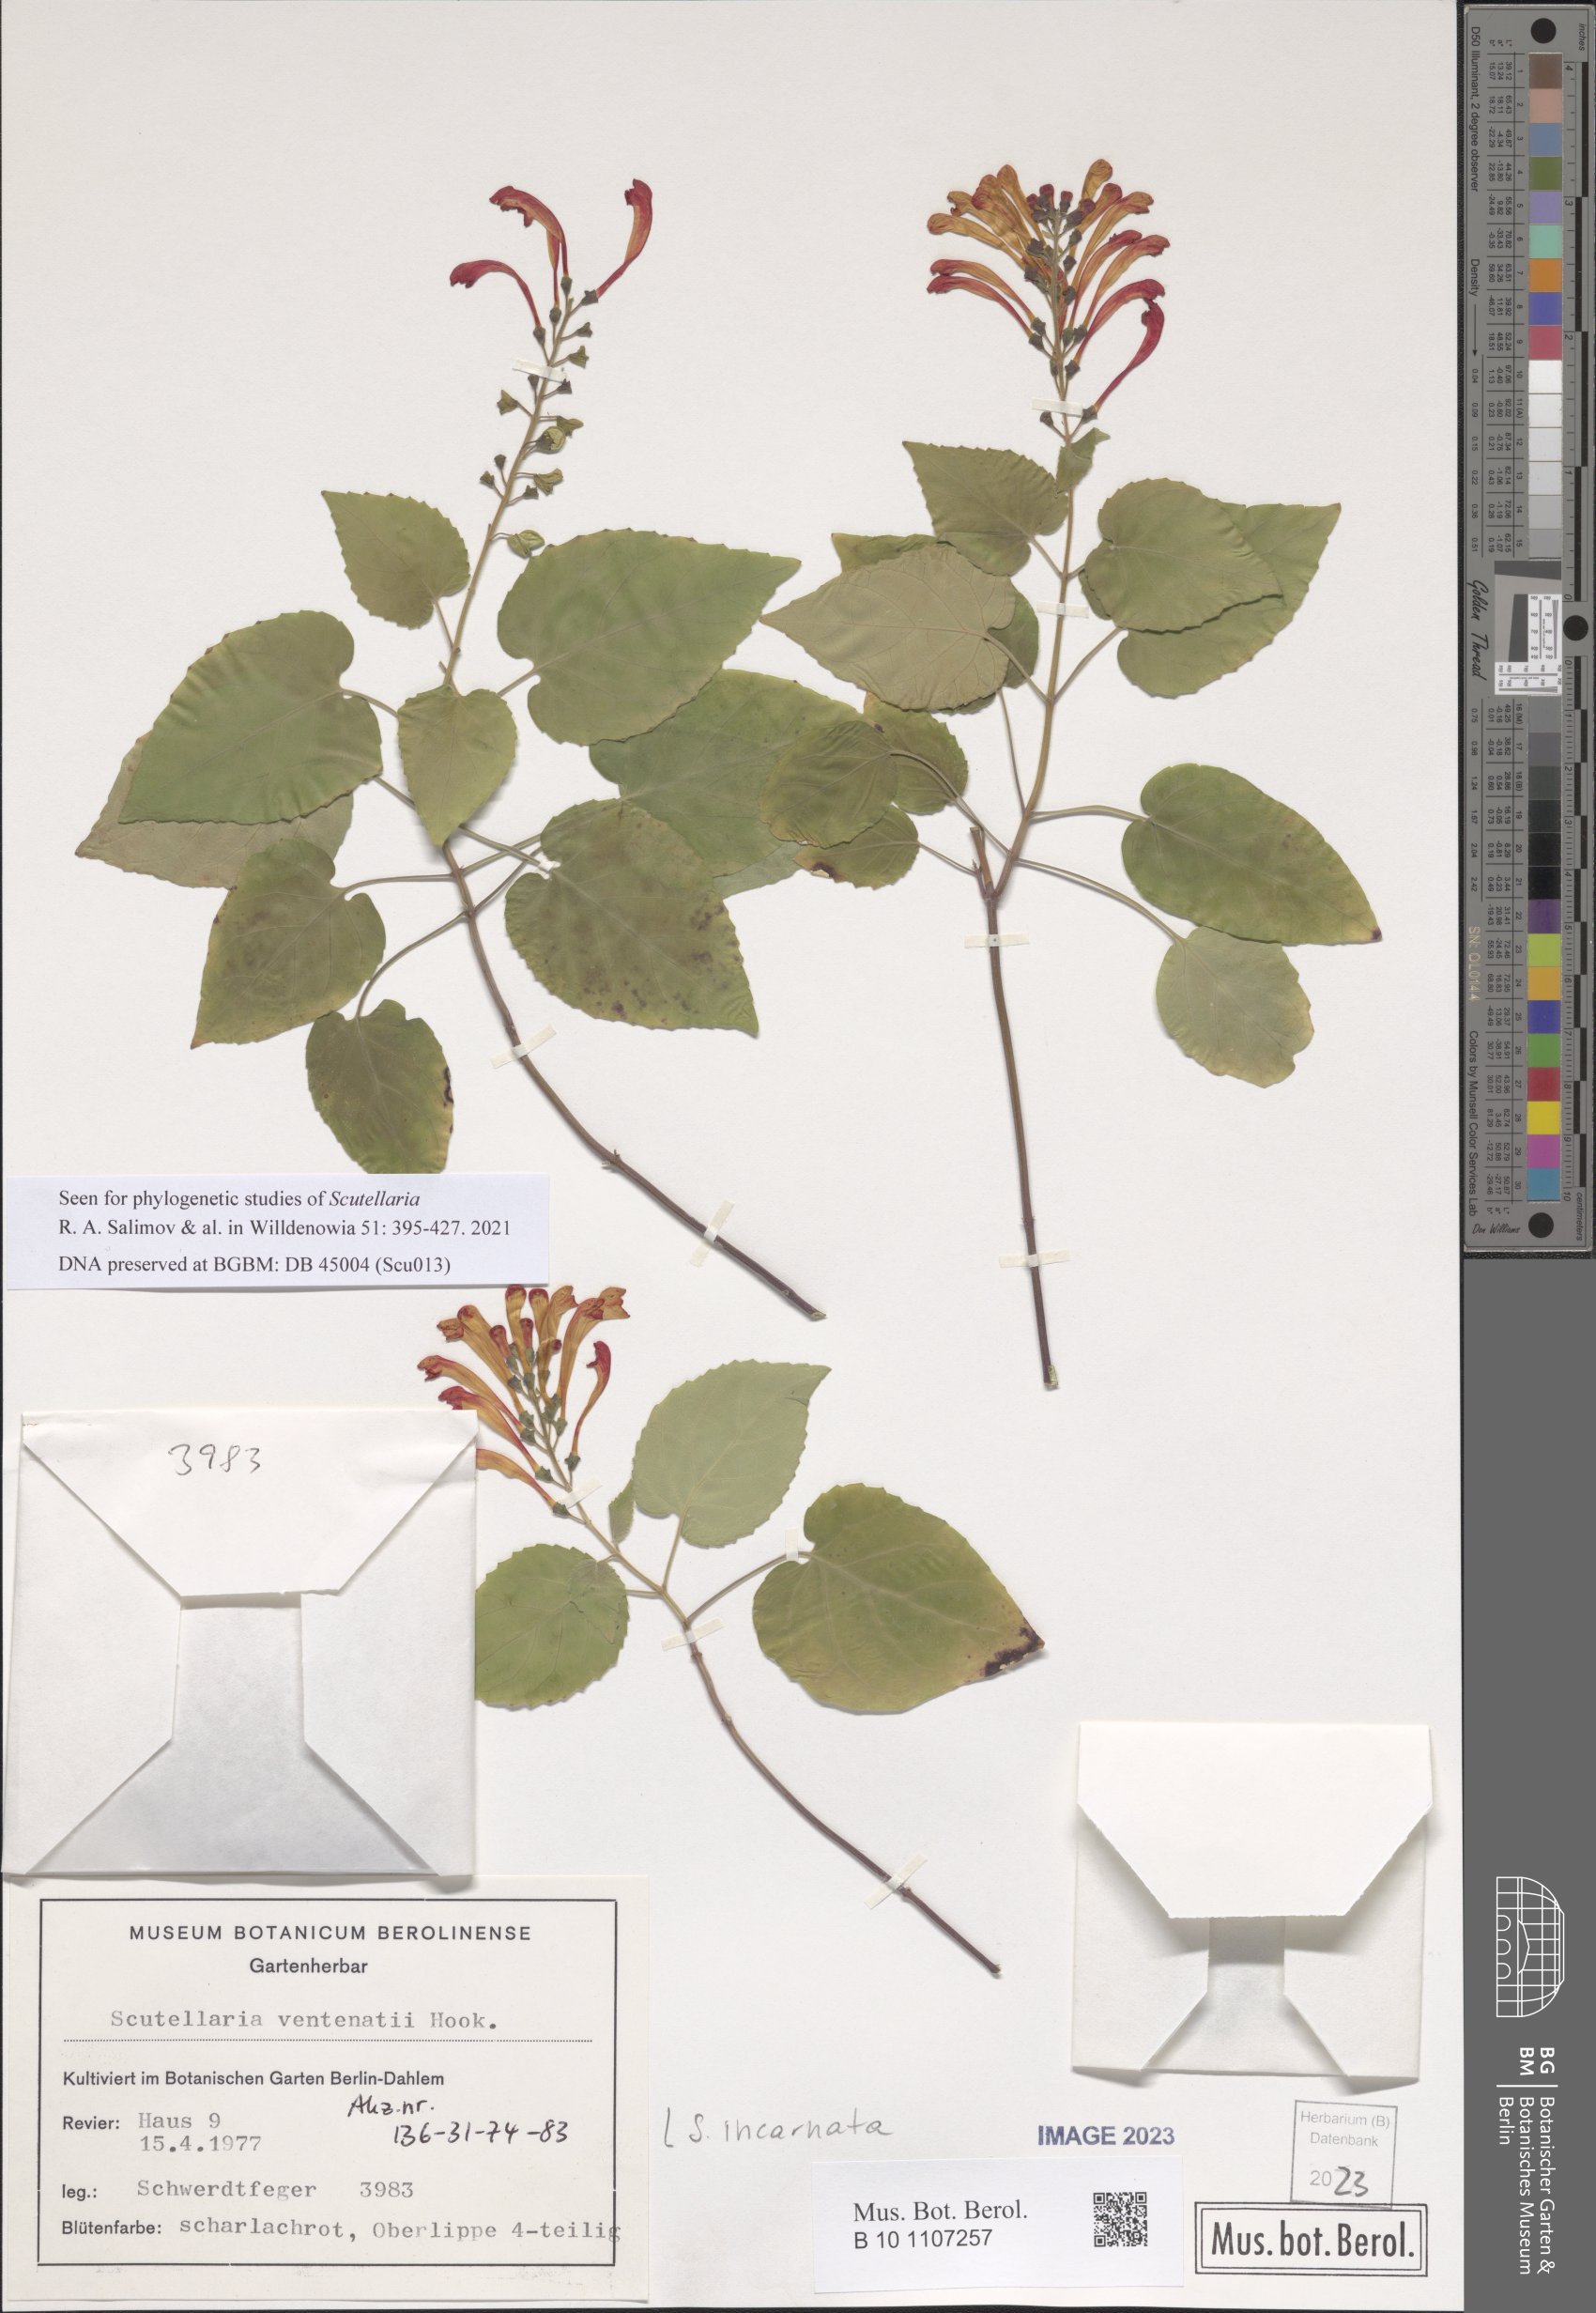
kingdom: Plantae
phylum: Tracheophyta
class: Magnoliopsida
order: Lamiales
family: Lamiaceae
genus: Scutellaria
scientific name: Scutellaria incarnata
